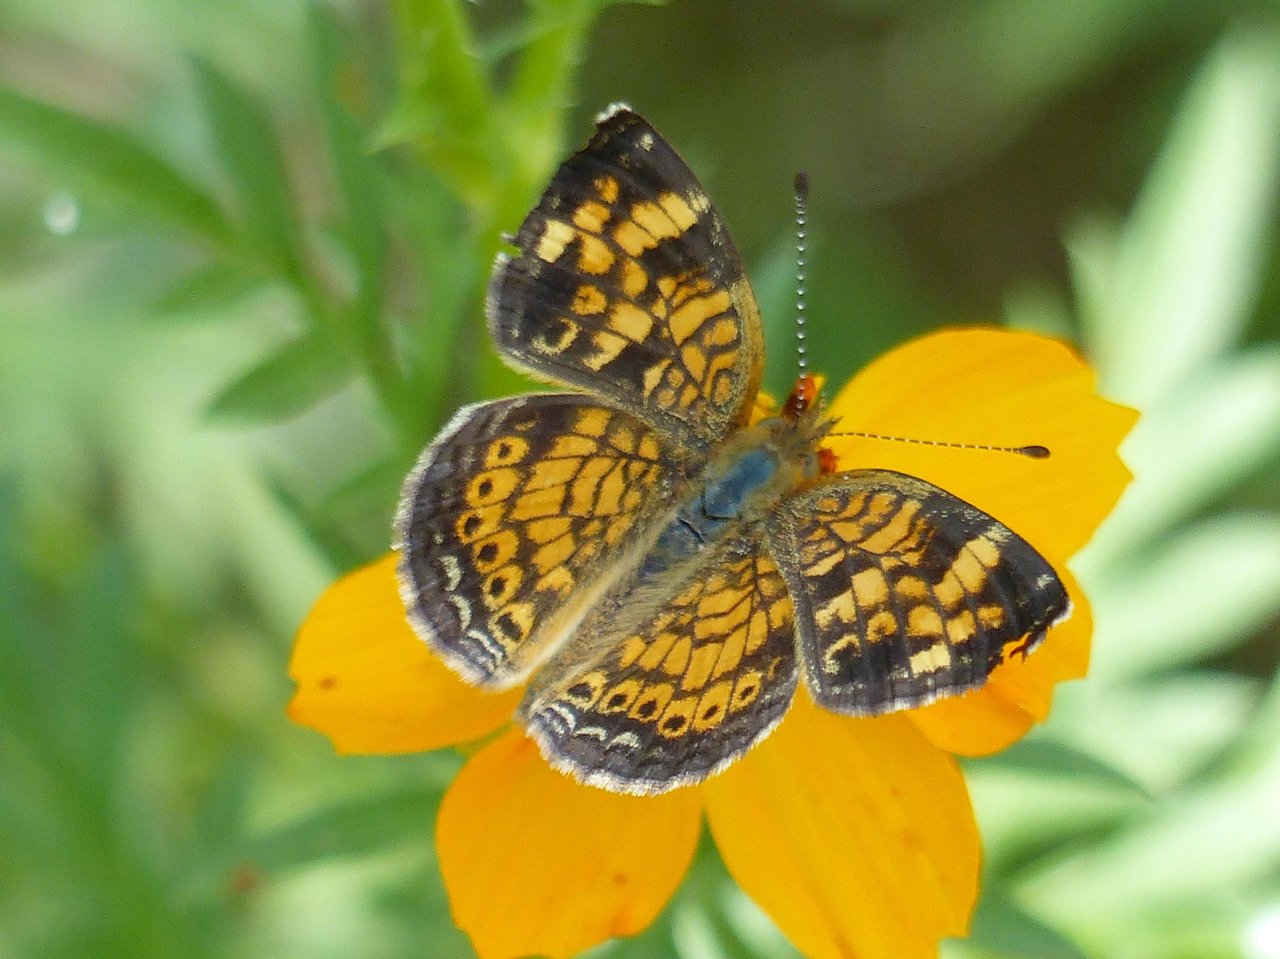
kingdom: Animalia
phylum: Arthropoda
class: Insecta
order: Lepidoptera
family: Nymphalidae
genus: Phyciodes
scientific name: Phyciodes tharos
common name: Pearl Crescent
